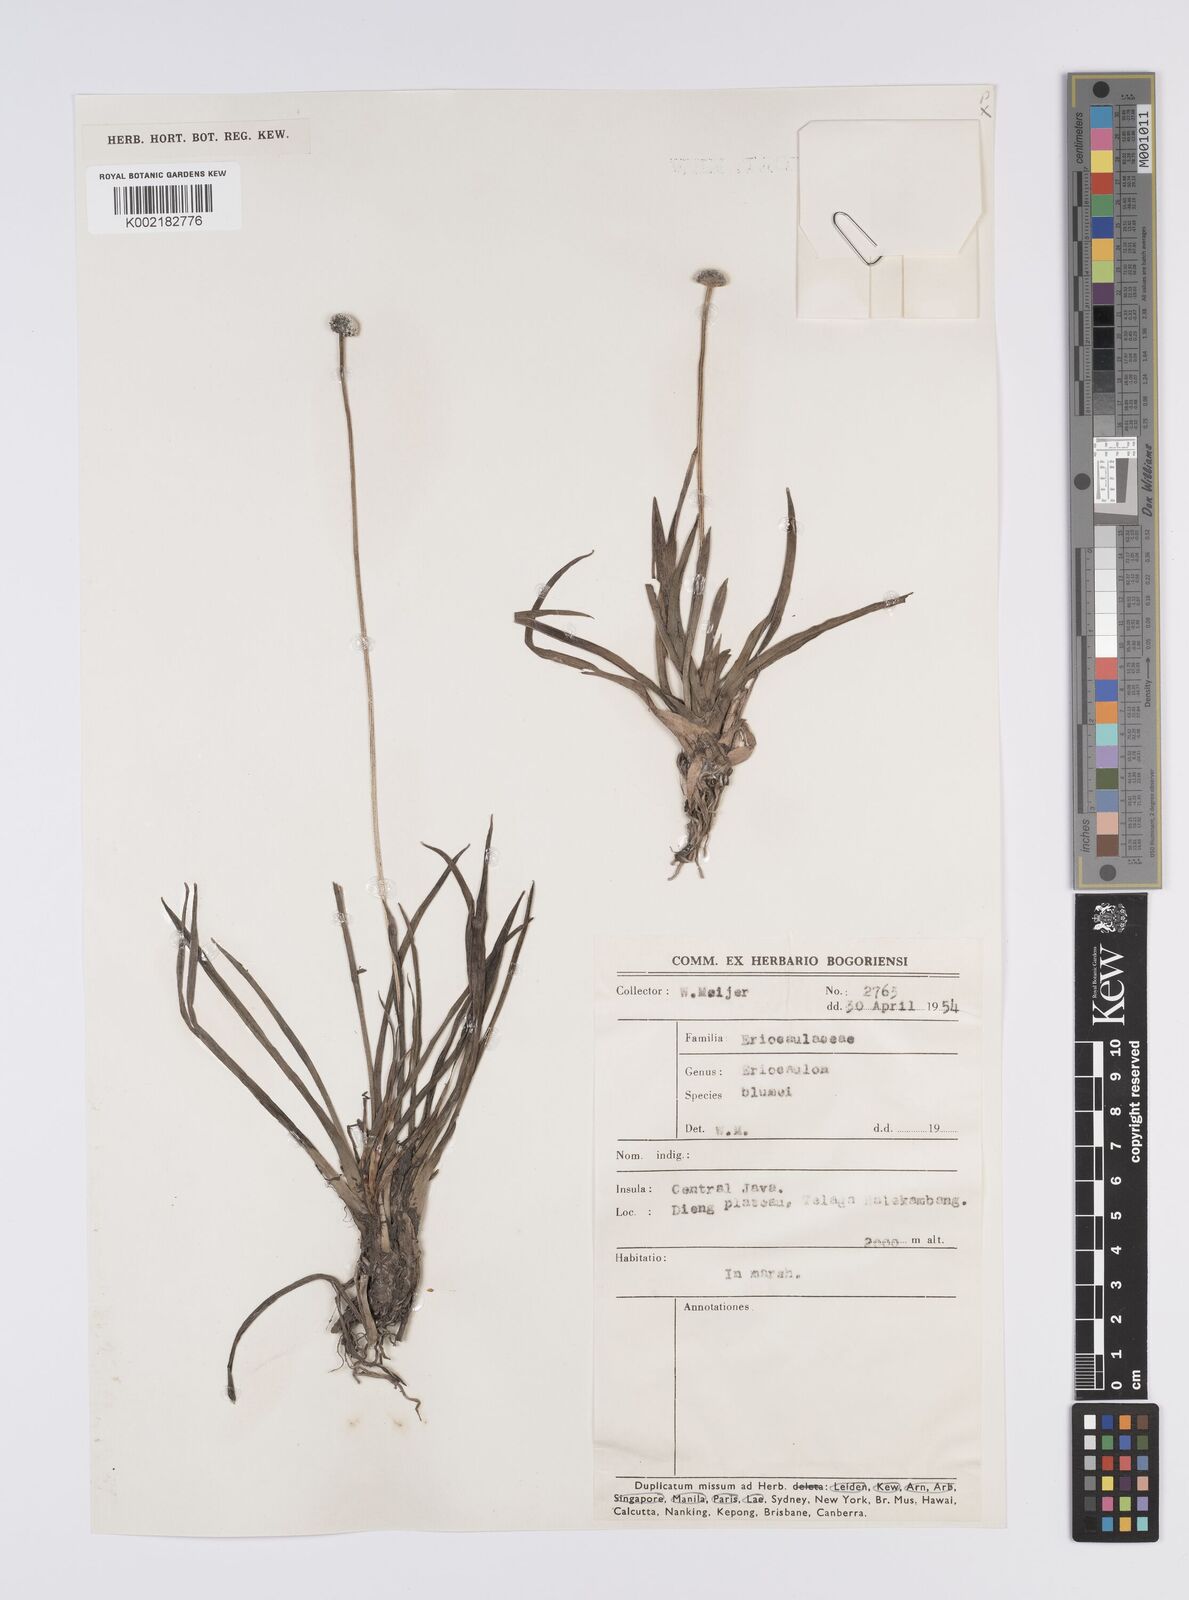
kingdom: Plantae
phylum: Tracheophyta
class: Liliopsida
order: Poales
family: Eriocaulaceae
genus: Eriocaulon
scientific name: Eriocaulon brownianum
